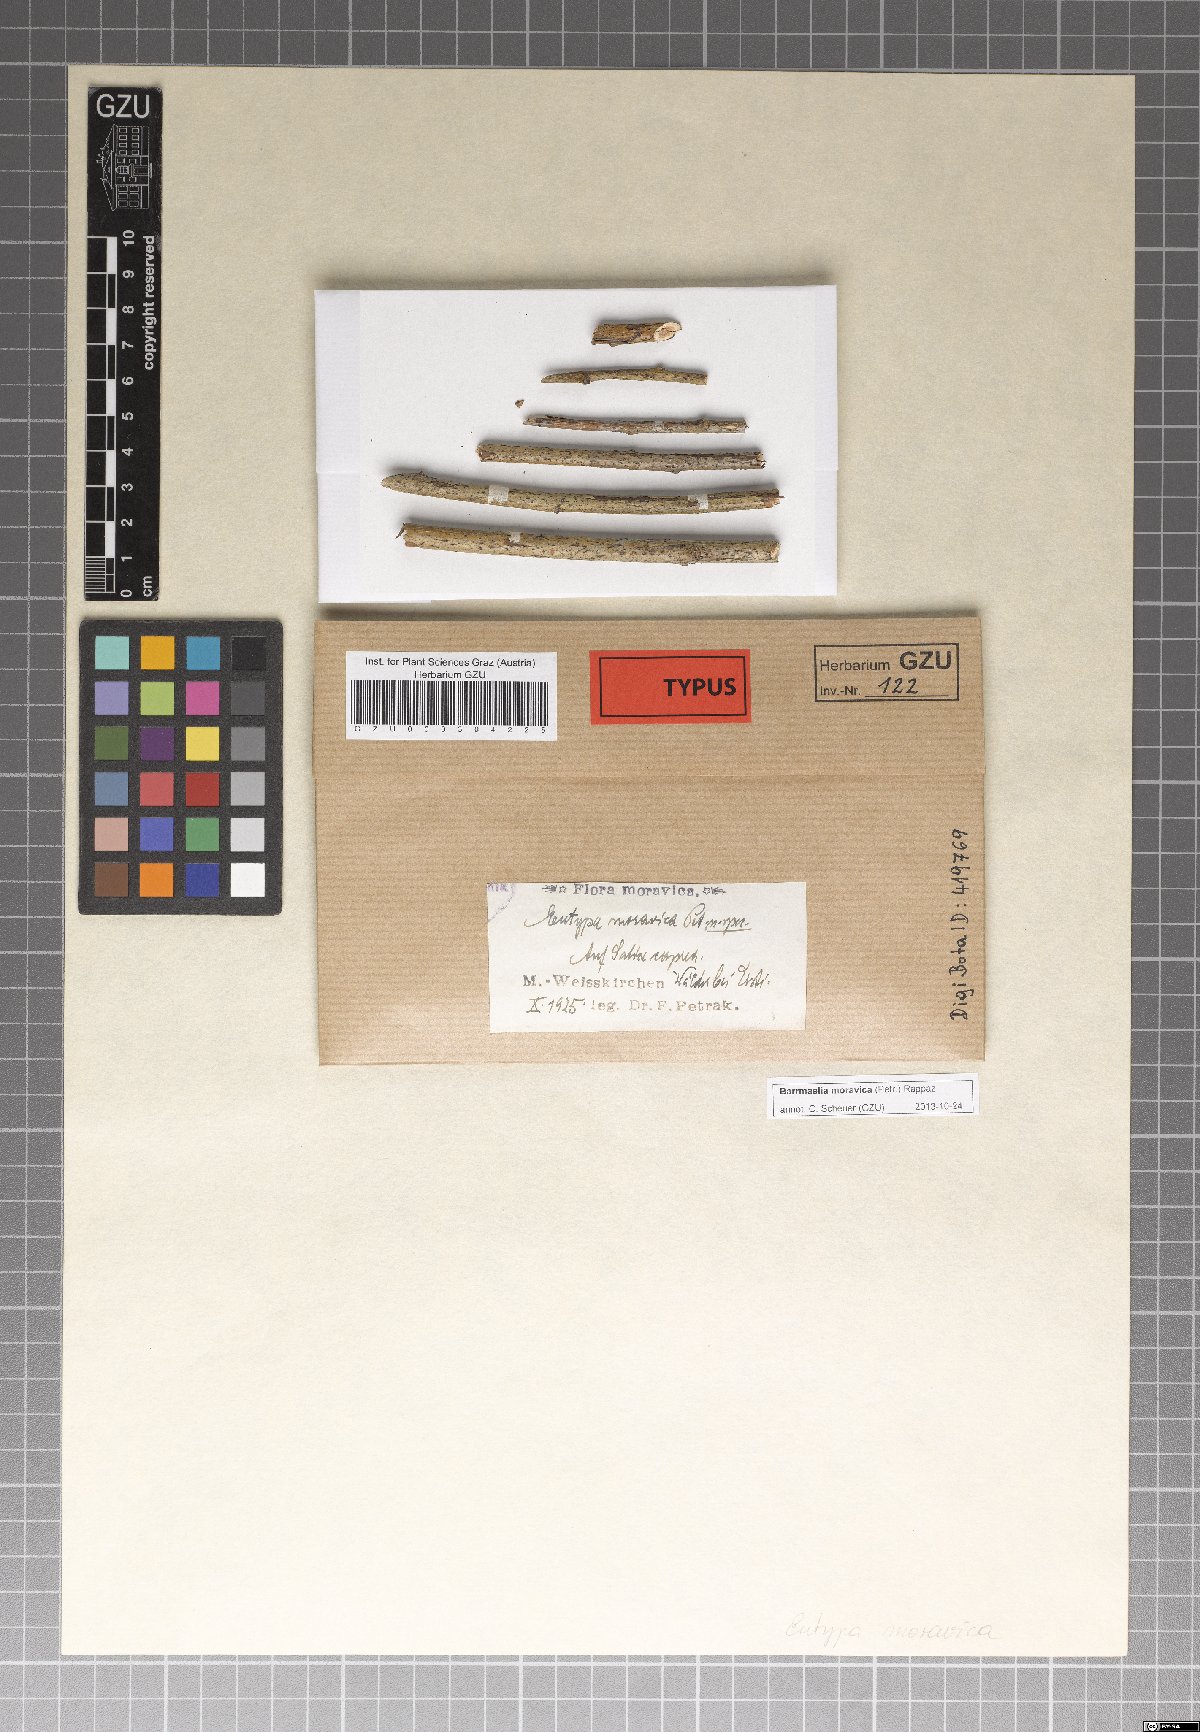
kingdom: Fungi
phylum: Ascomycota
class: Sordariomycetes
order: Xylariales
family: Barrmaeliaceae
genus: Barrmaelia
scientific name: Barrmaelia moravica
